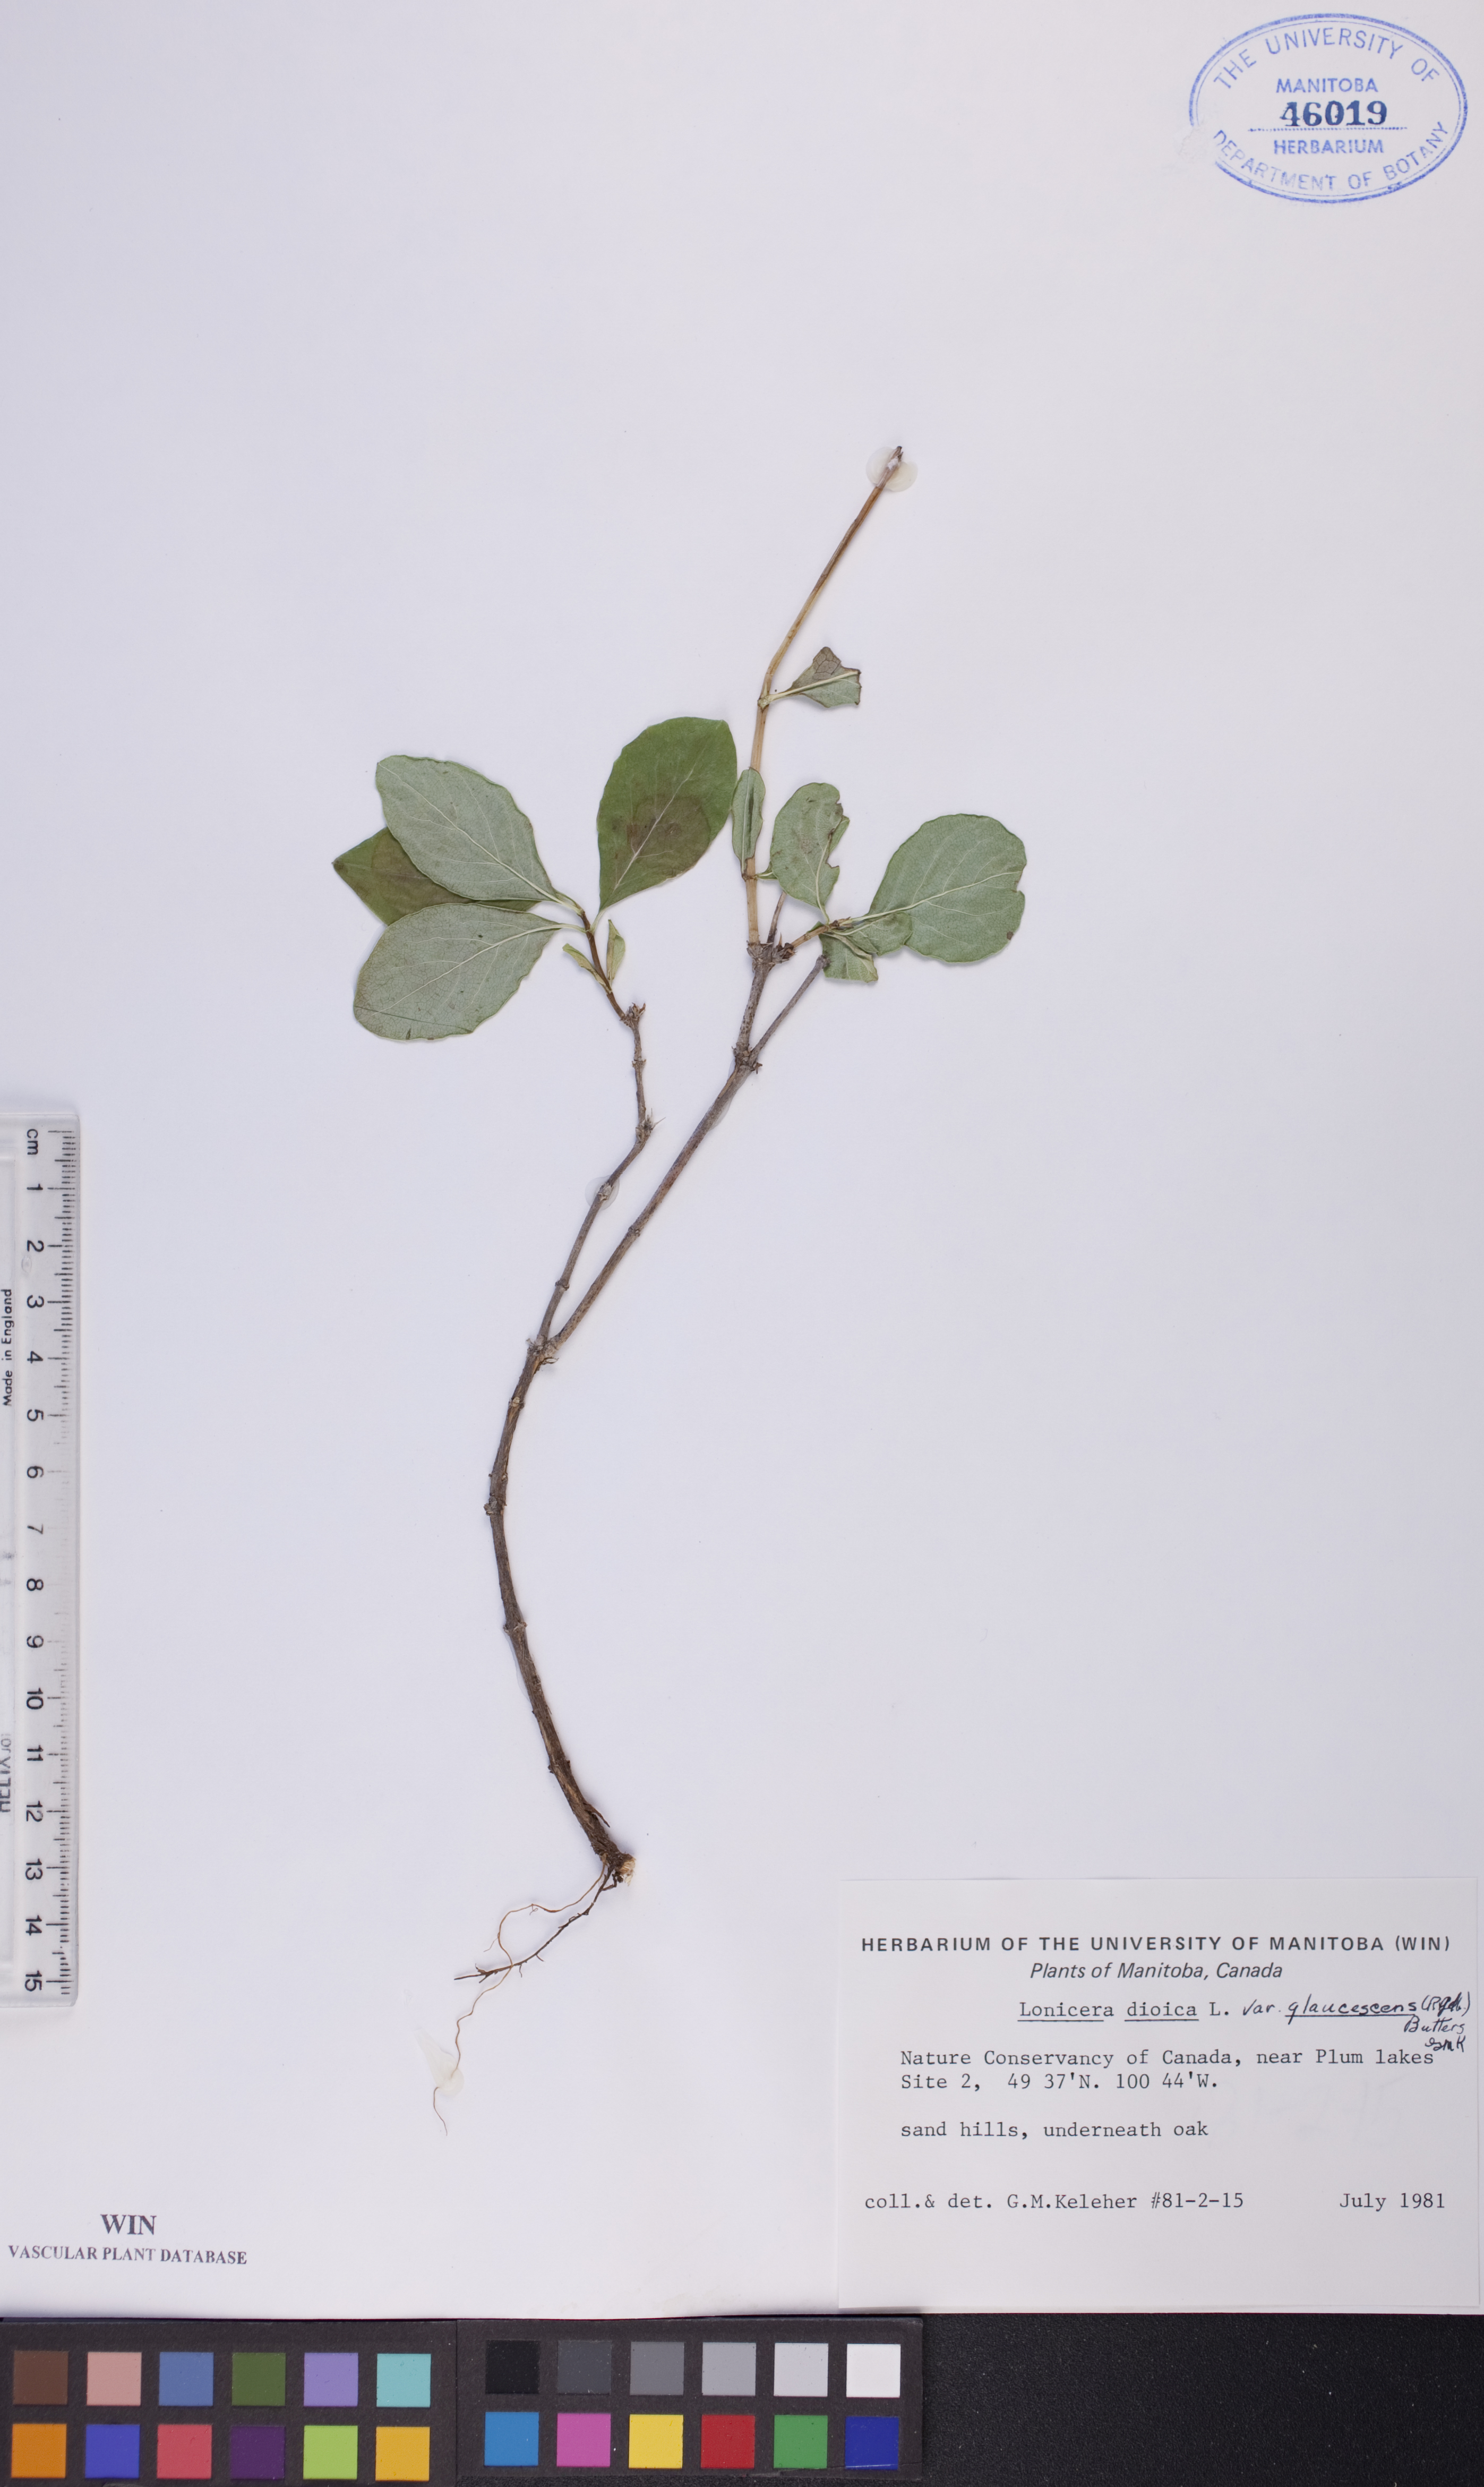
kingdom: Plantae
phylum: Tracheophyta
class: Magnoliopsida
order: Dipsacales
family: Caprifoliaceae
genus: Lonicera
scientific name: Lonicera dioica
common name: Limber honeysuckle
